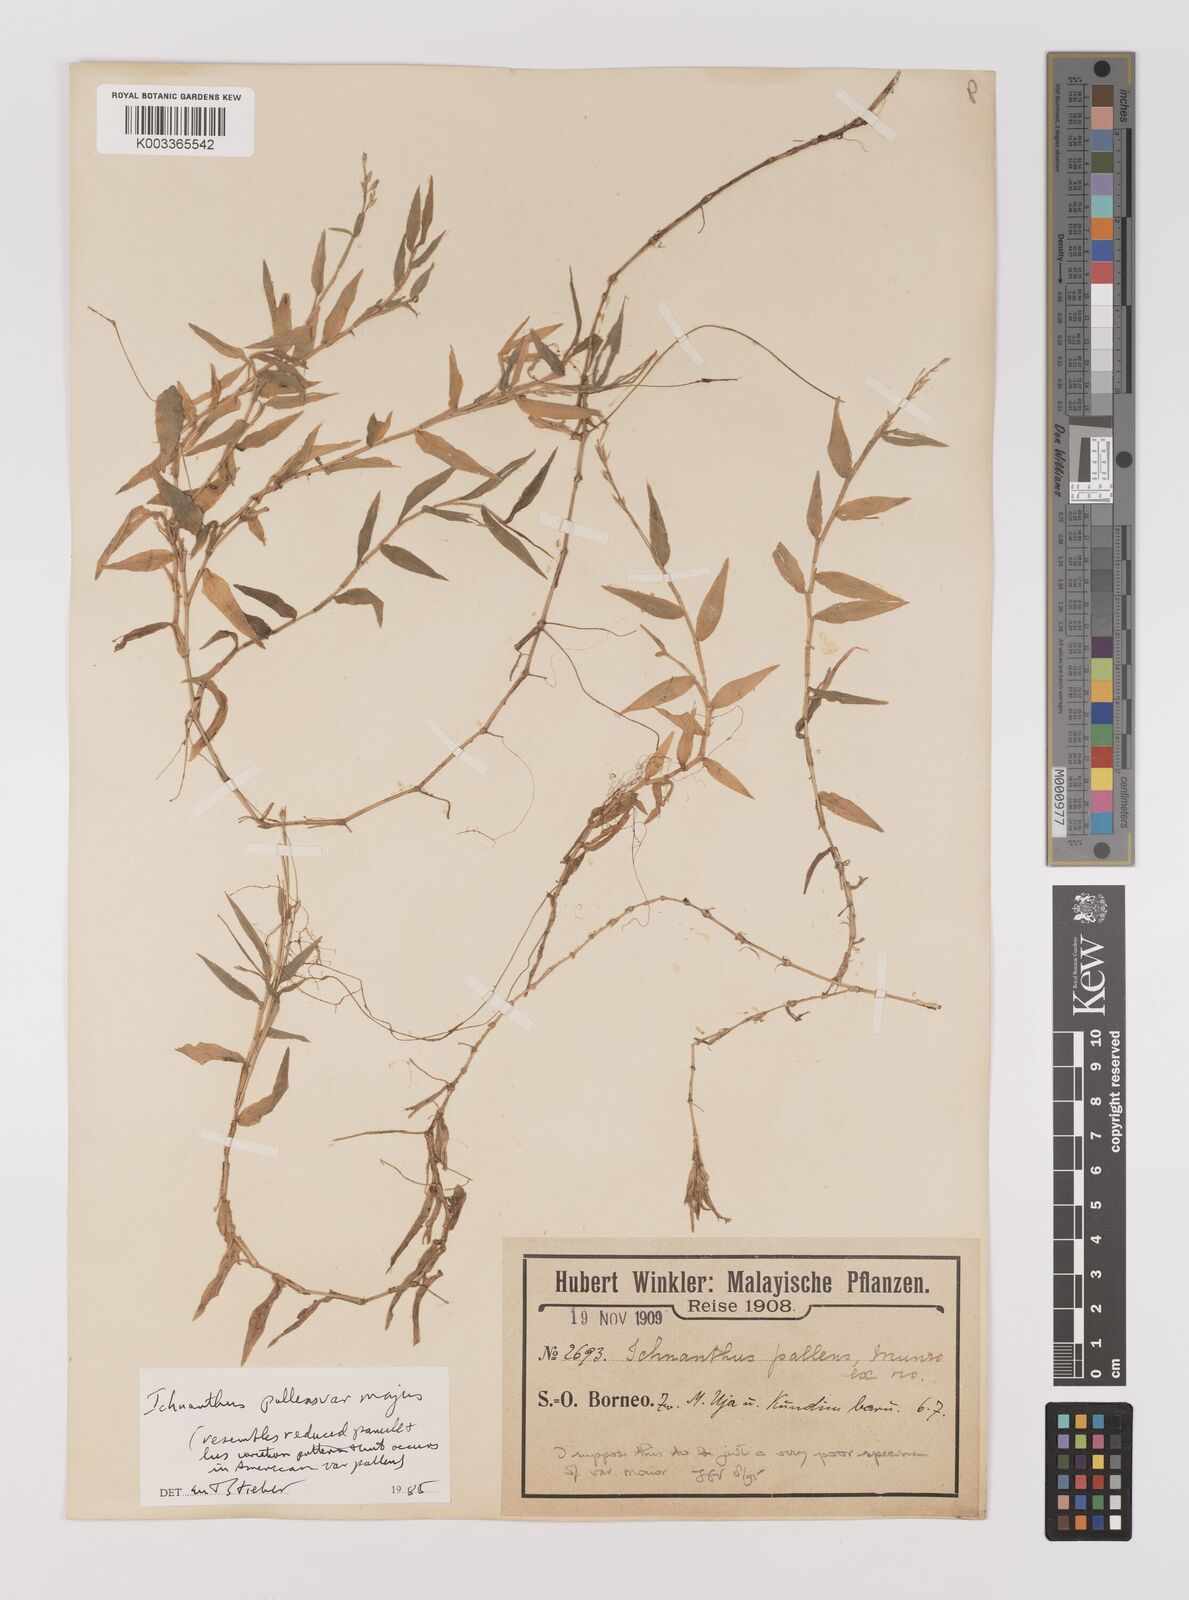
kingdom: Plantae
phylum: Tracheophyta
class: Liliopsida
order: Poales
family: Poaceae
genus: Ichnanthus
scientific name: Ichnanthus pallens
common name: Water grass
